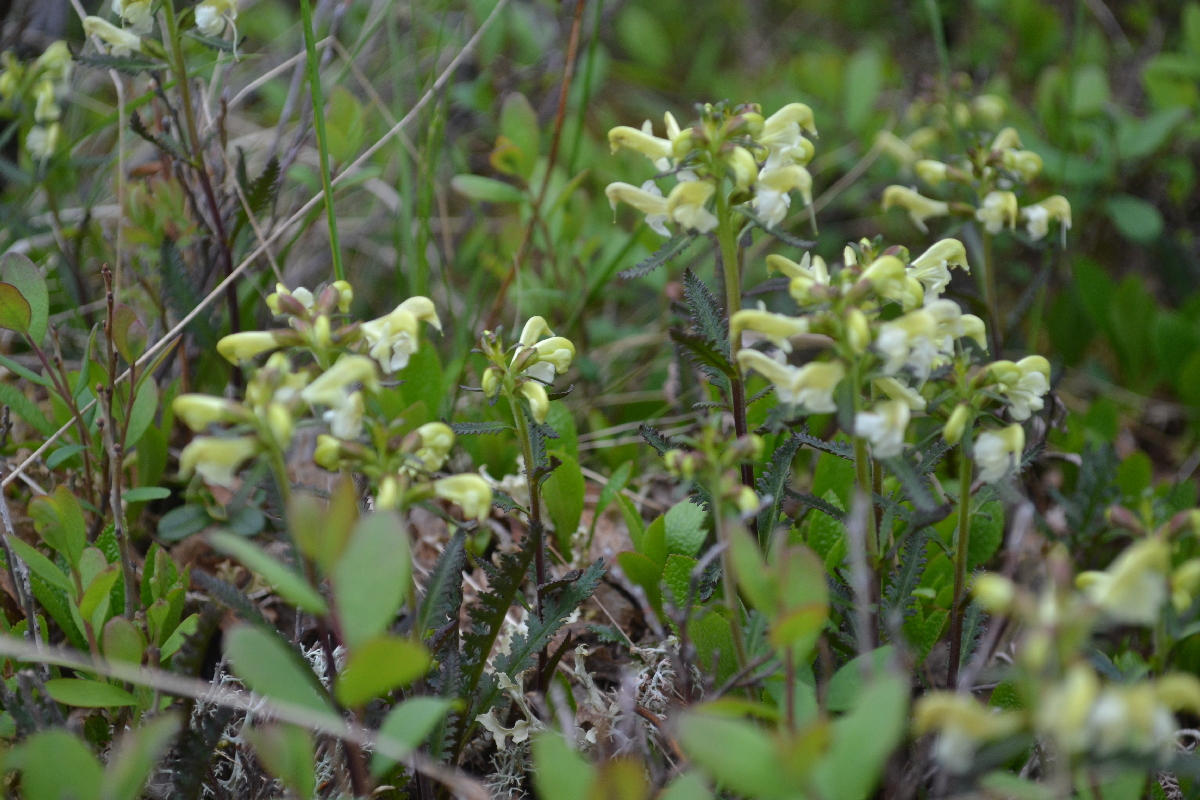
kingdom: Plantae
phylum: Tracheophyta
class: Magnoliopsida
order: Lamiales
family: Orobanchaceae
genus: Pedicularis
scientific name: Pedicularis lapponica
